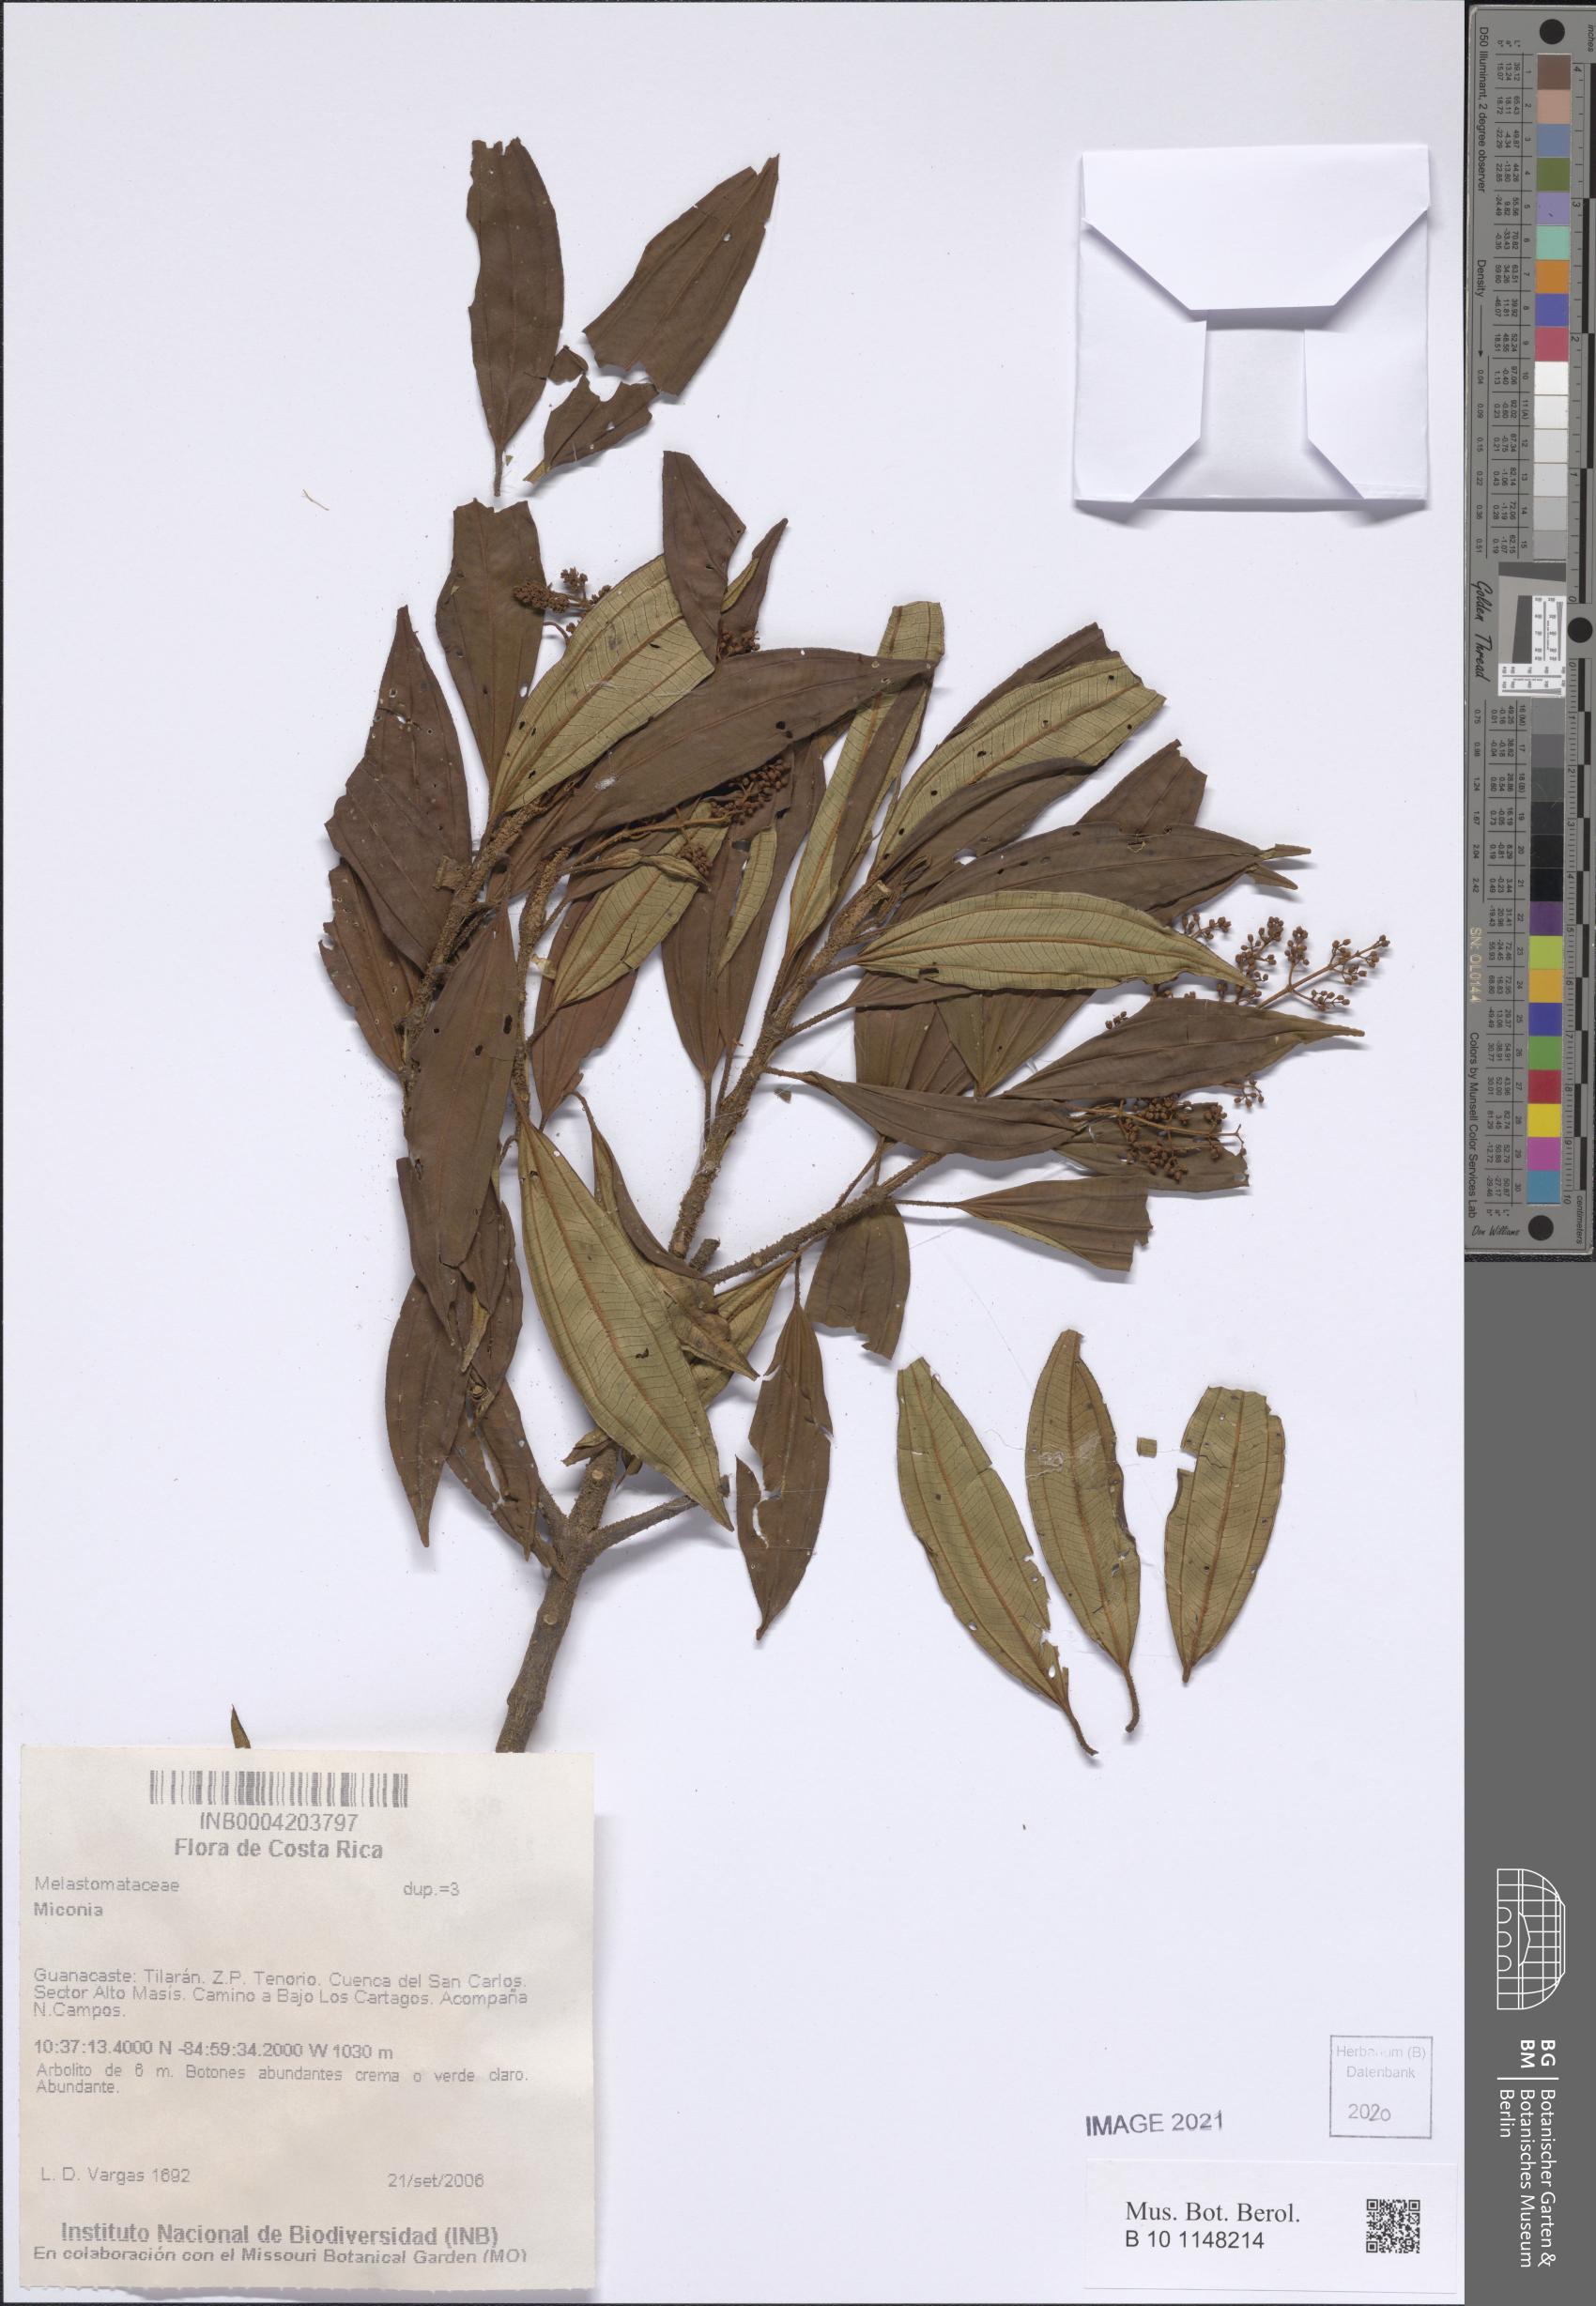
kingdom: Plantae
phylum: Tracheophyta
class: Magnoliopsida
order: Myrtales
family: Melastomataceae
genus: Miconia
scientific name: Miconia
